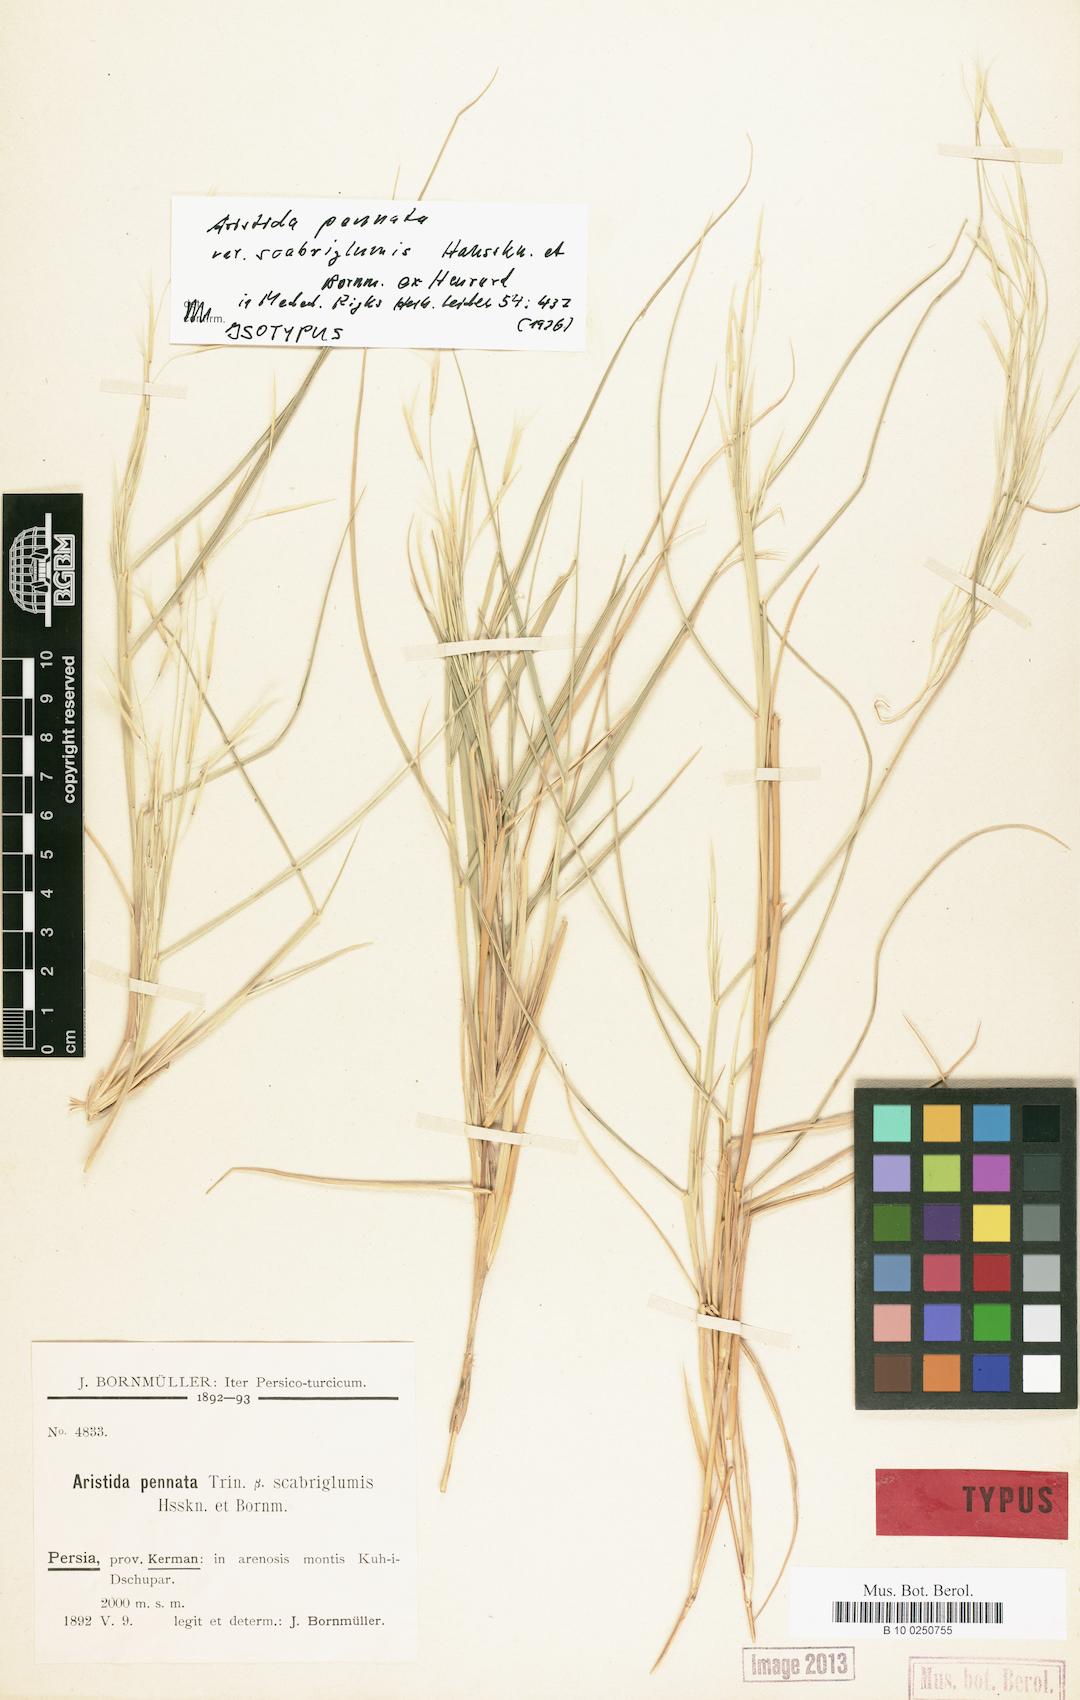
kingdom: Plantae
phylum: Tracheophyta
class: Liliopsida
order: Poales
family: Poaceae
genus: Stipagrostis
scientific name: Stipagrostis pennata
